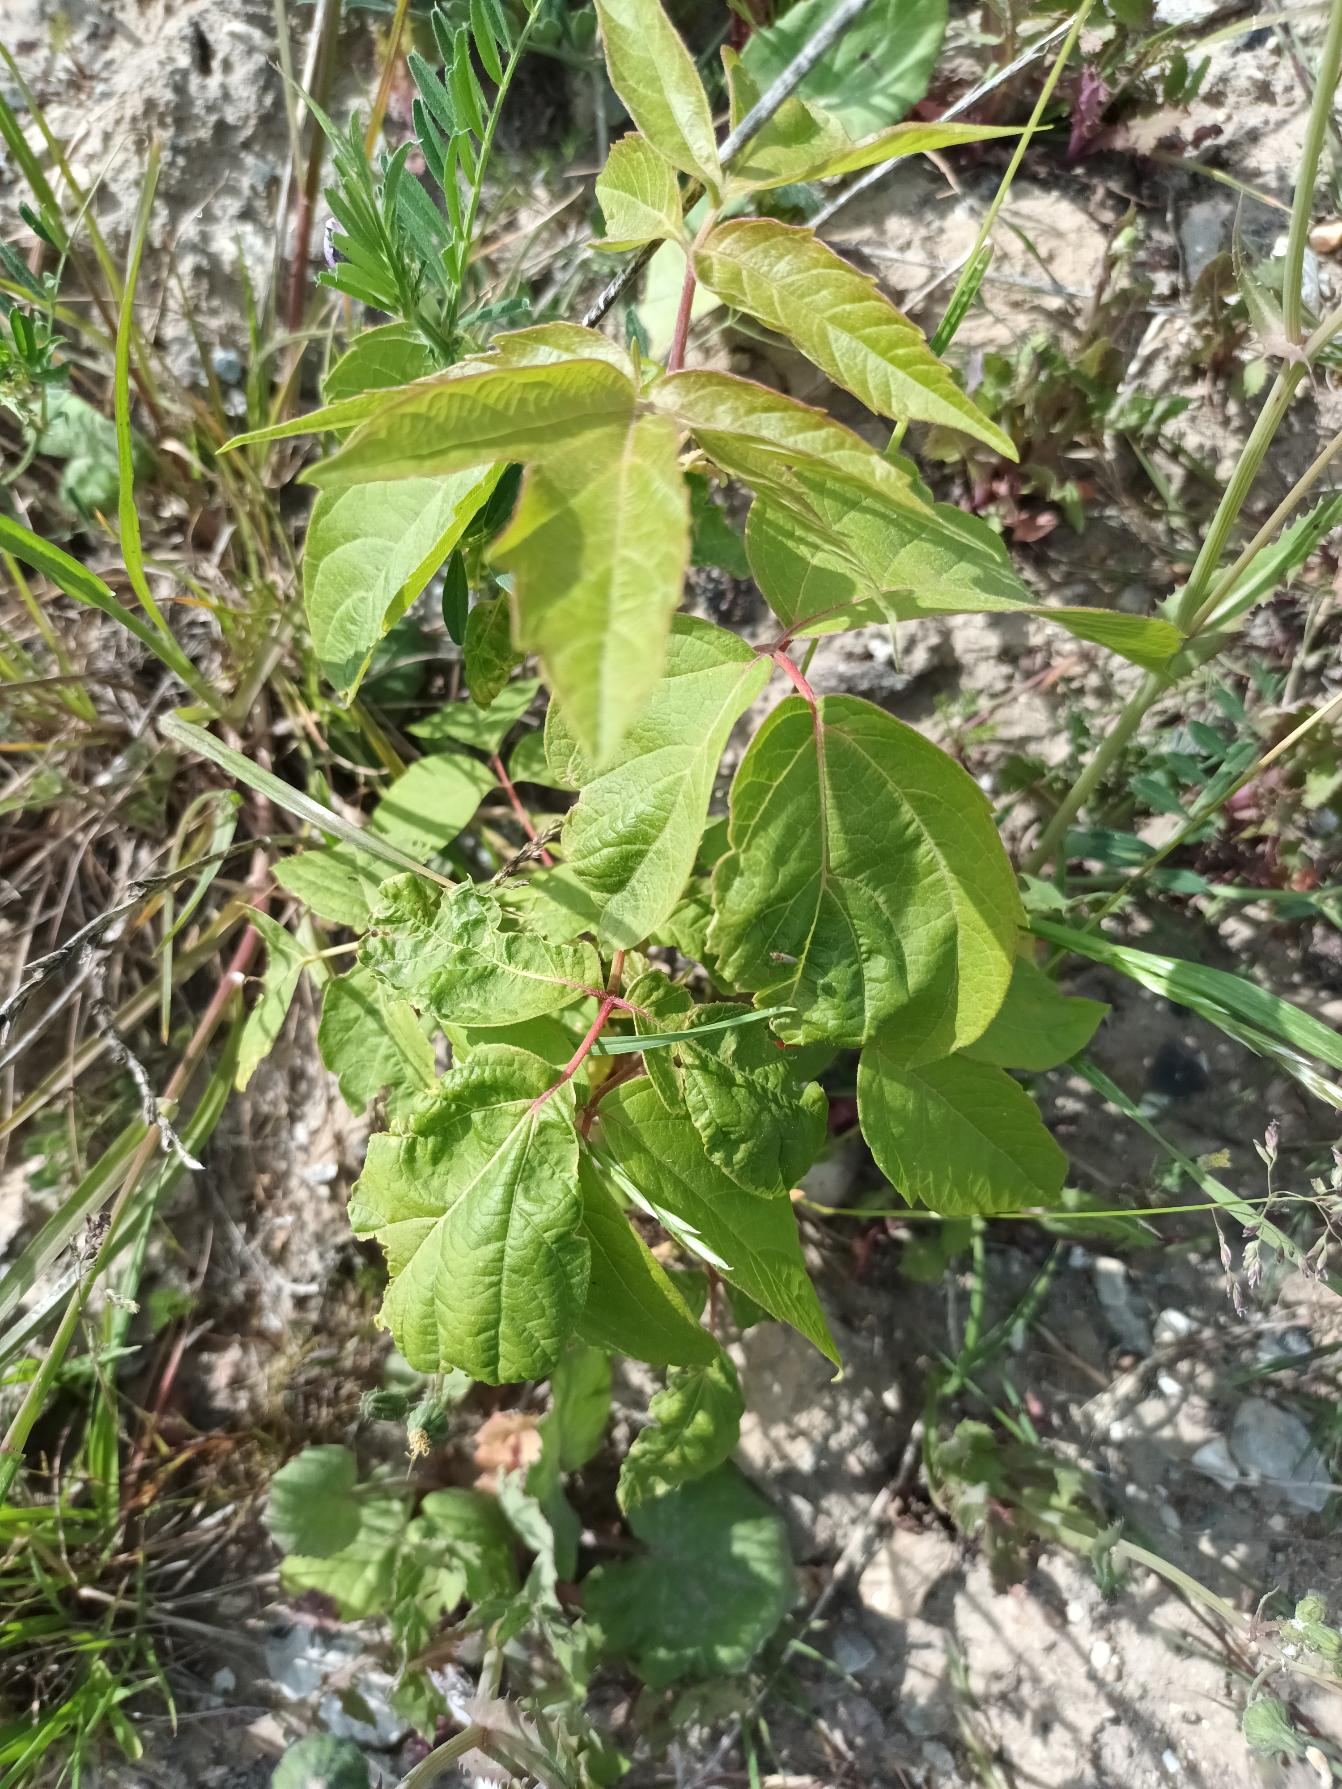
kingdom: Plantae
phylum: Tracheophyta
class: Magnoliopsida
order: Sapindales
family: Sapindaceae
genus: Acer
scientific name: Acer negundo
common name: Askebladet løn
